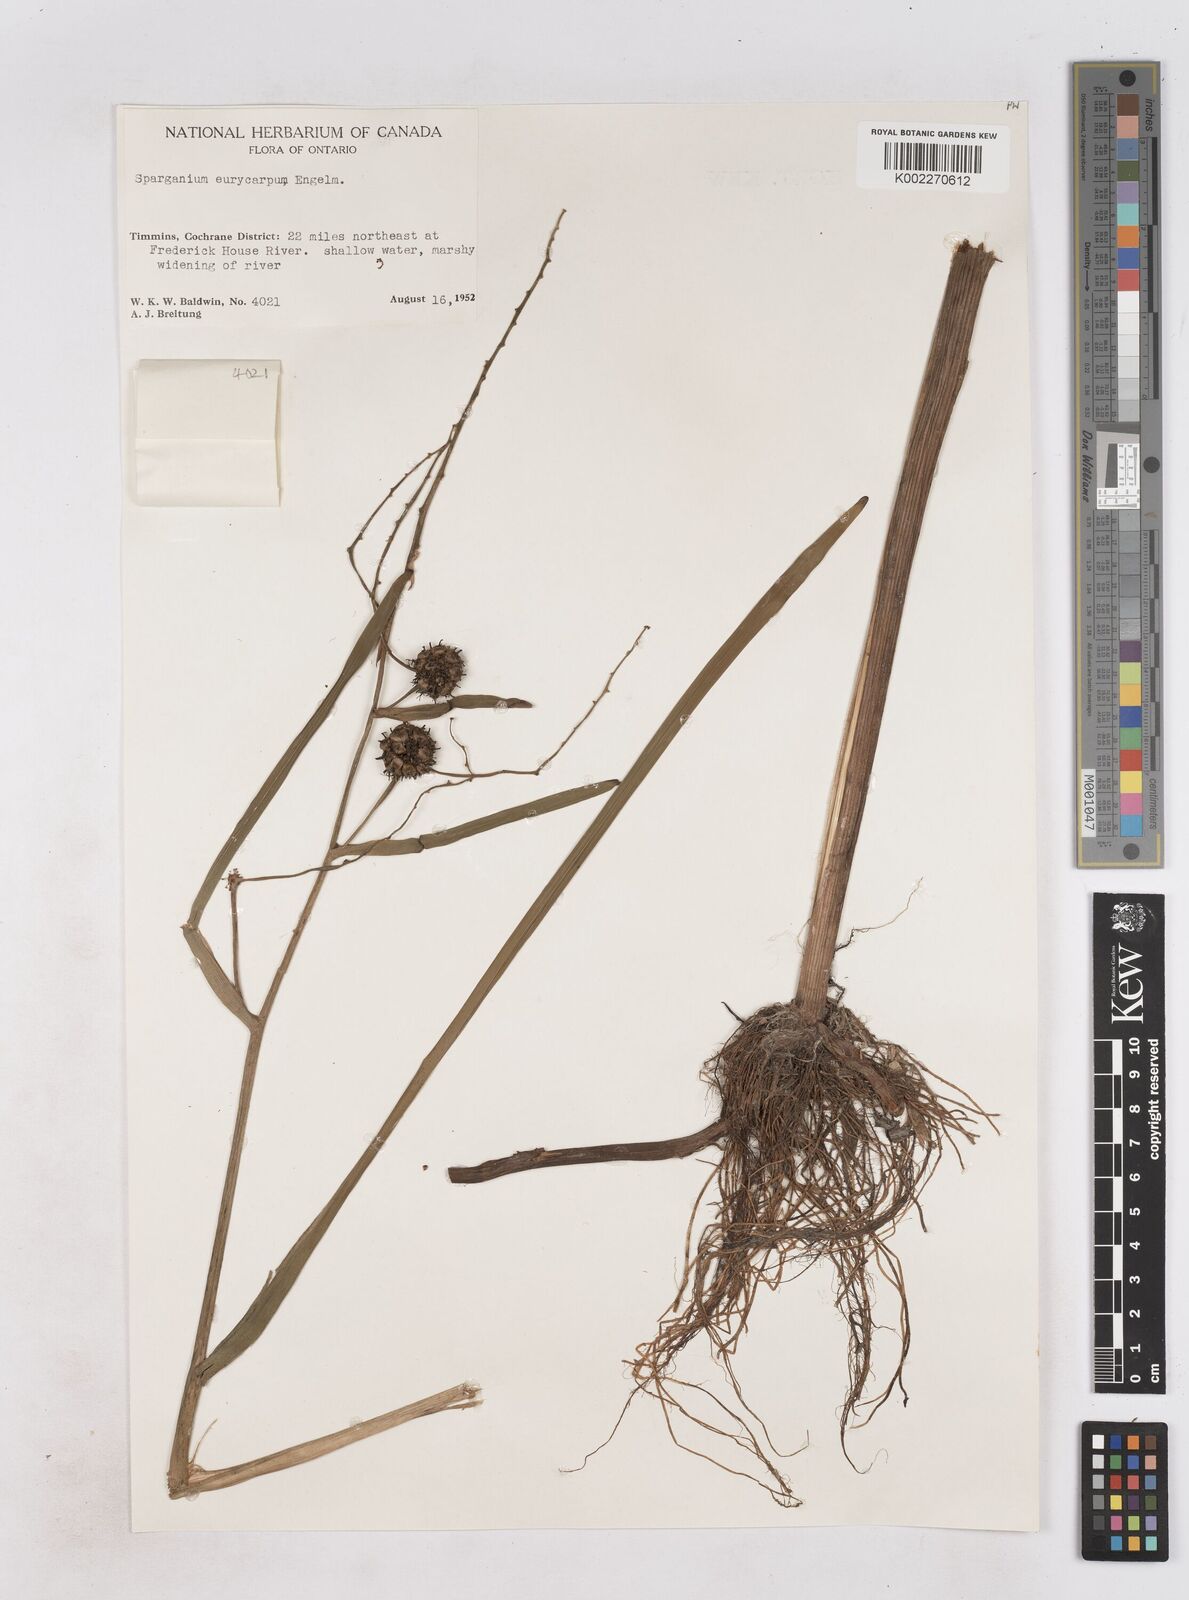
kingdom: Plantae
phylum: Tracheophyta
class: Liliopsida
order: Poales
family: Typhaceae
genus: Sparganium
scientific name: Sparganium eurycarpum
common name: Broad-fruited burreed
